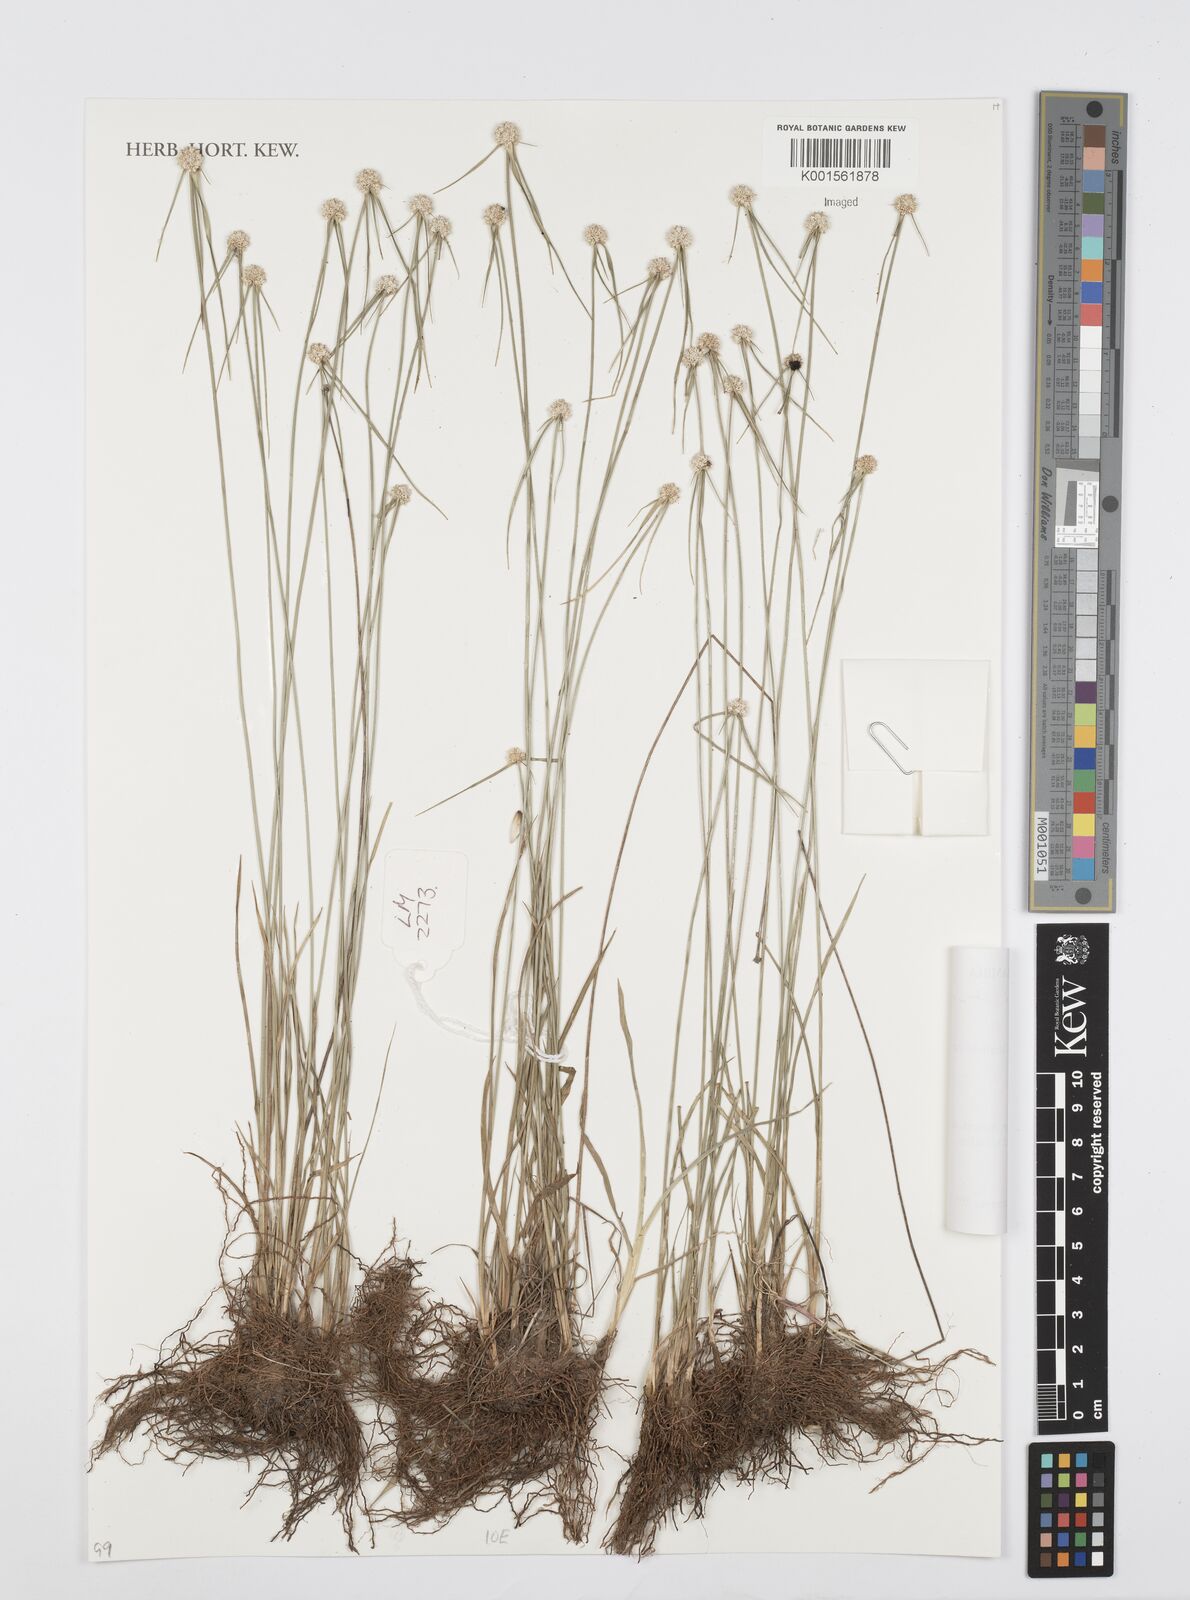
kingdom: Plantae
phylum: Tracheophyta
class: Liliopsida
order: Poales
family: Cyperaceae
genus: Cyperus
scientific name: Cyperus simpsonii
